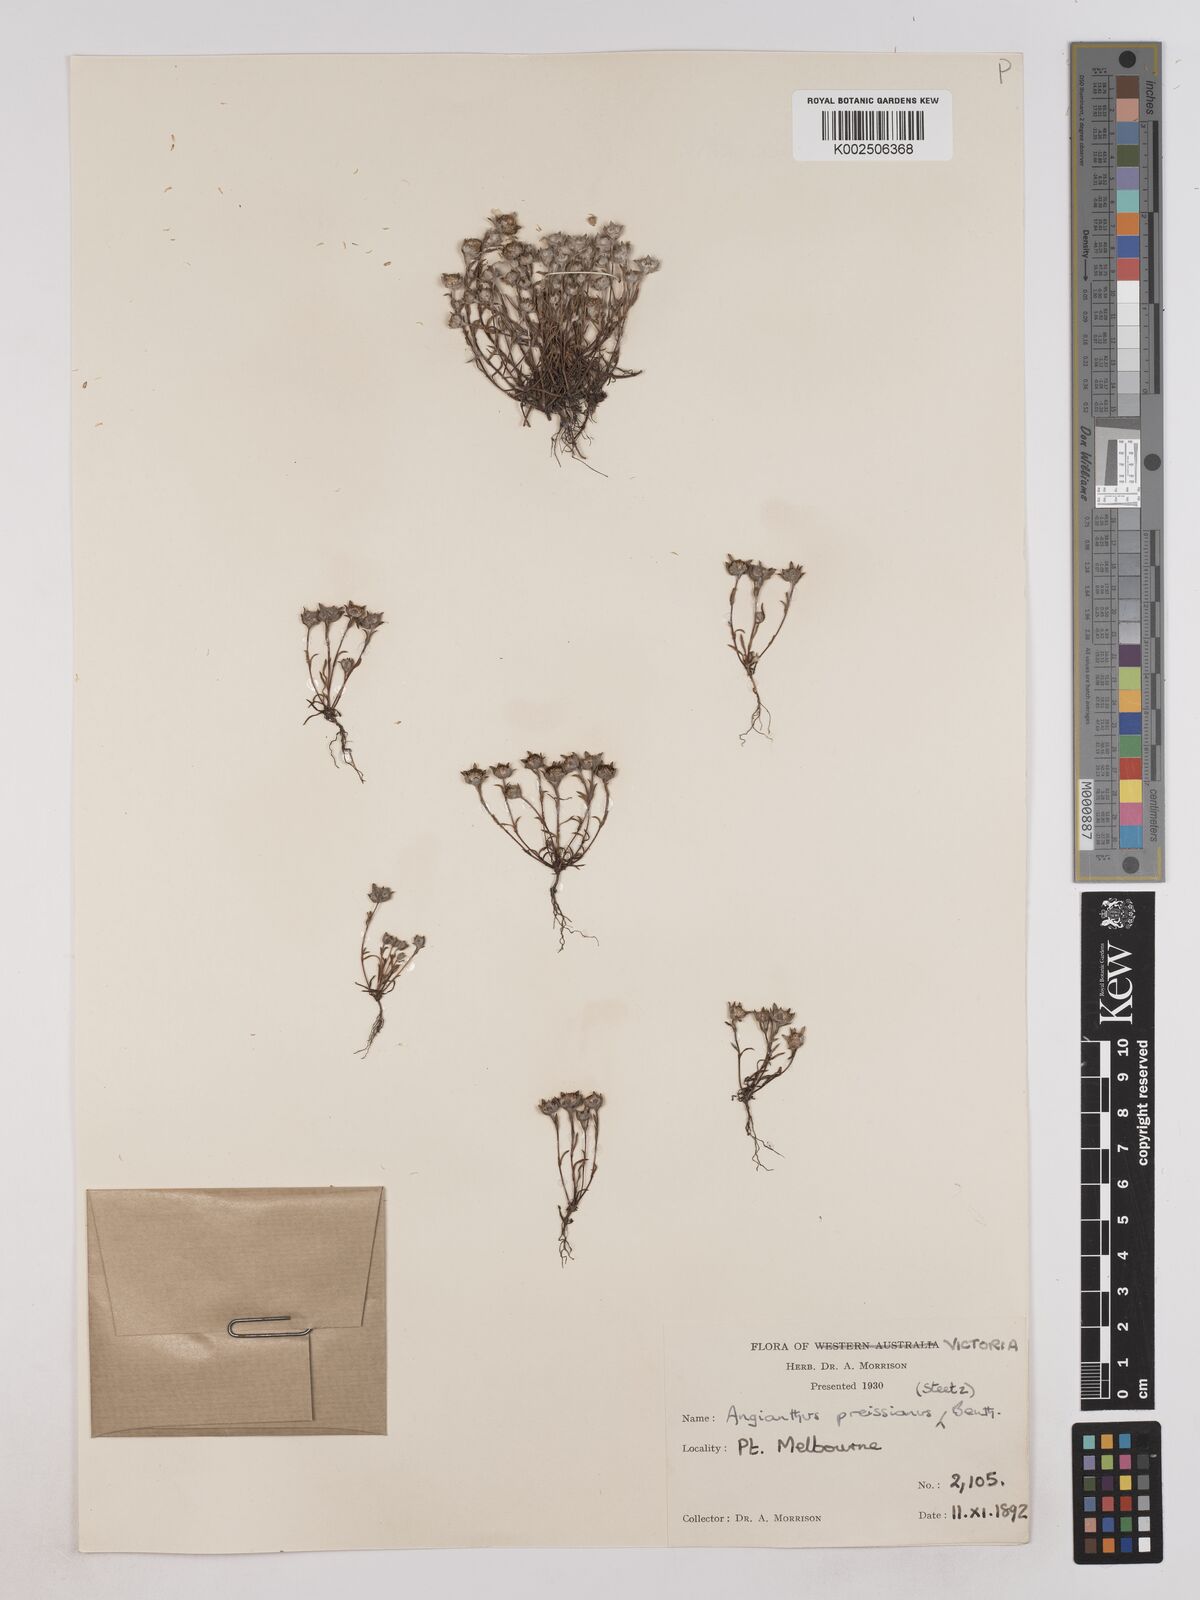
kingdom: Plantae
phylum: Tracheophyta
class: Magnoliopsida
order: Asterales
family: Asteraceae
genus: Angianthus
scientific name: Angianthus preissianus
